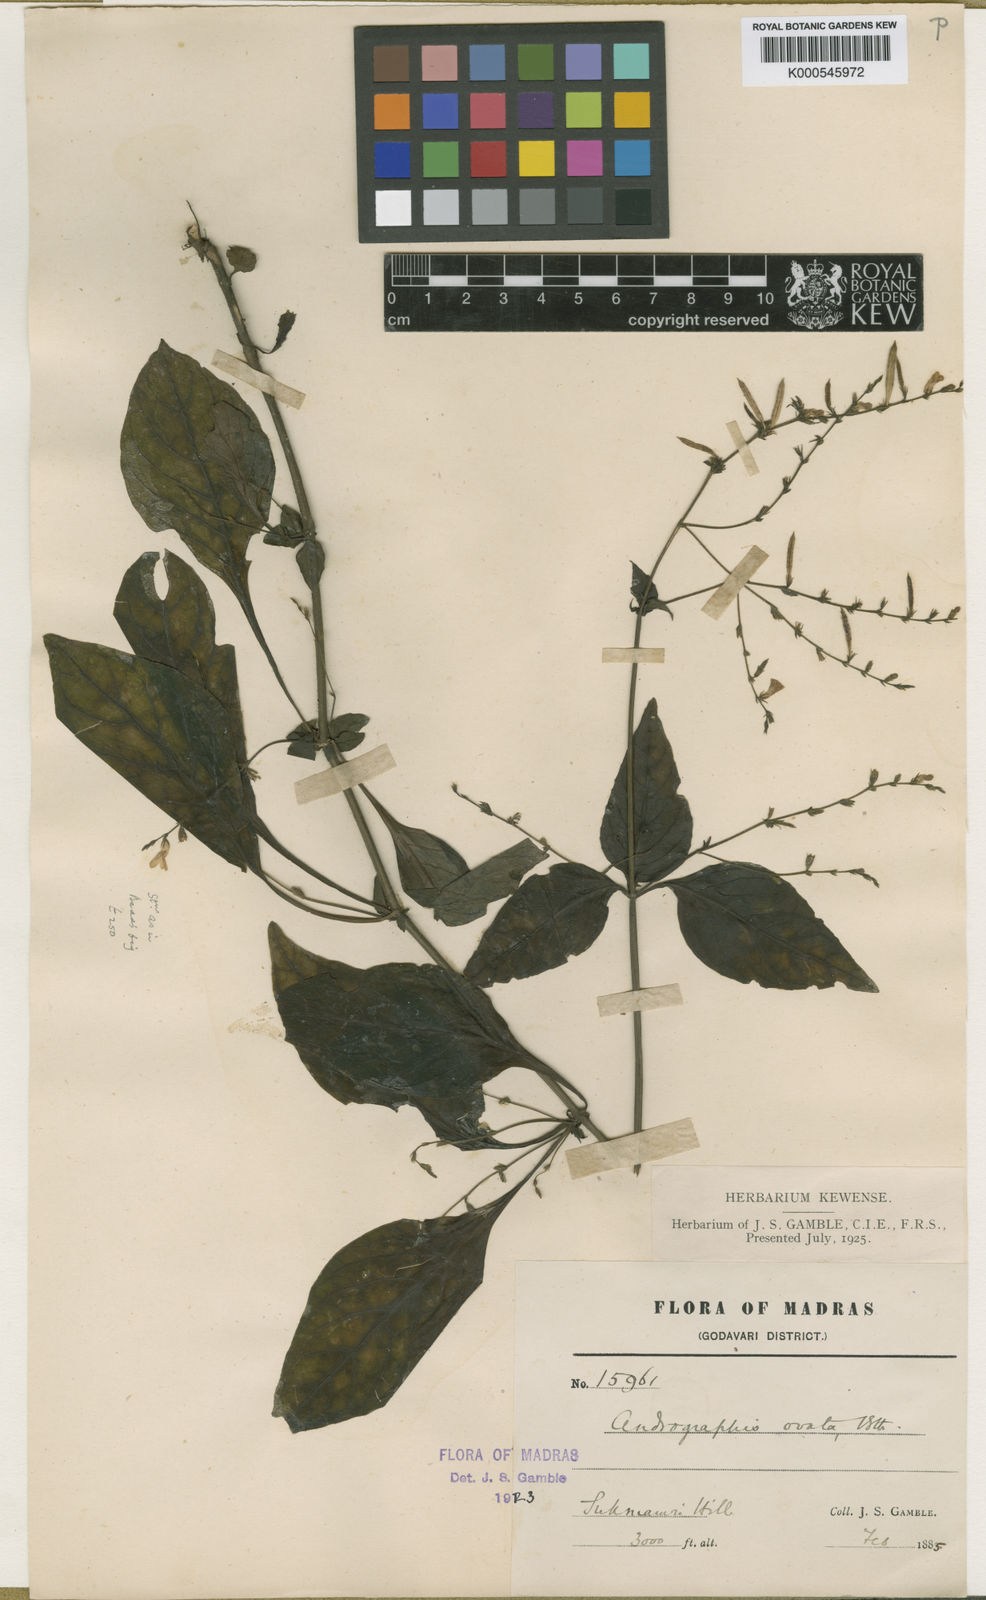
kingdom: Plantae
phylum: Tracheophyta
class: Magnoliopsida
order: Lamiales
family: Acanthaceae
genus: Andrographis
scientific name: Andrographis
